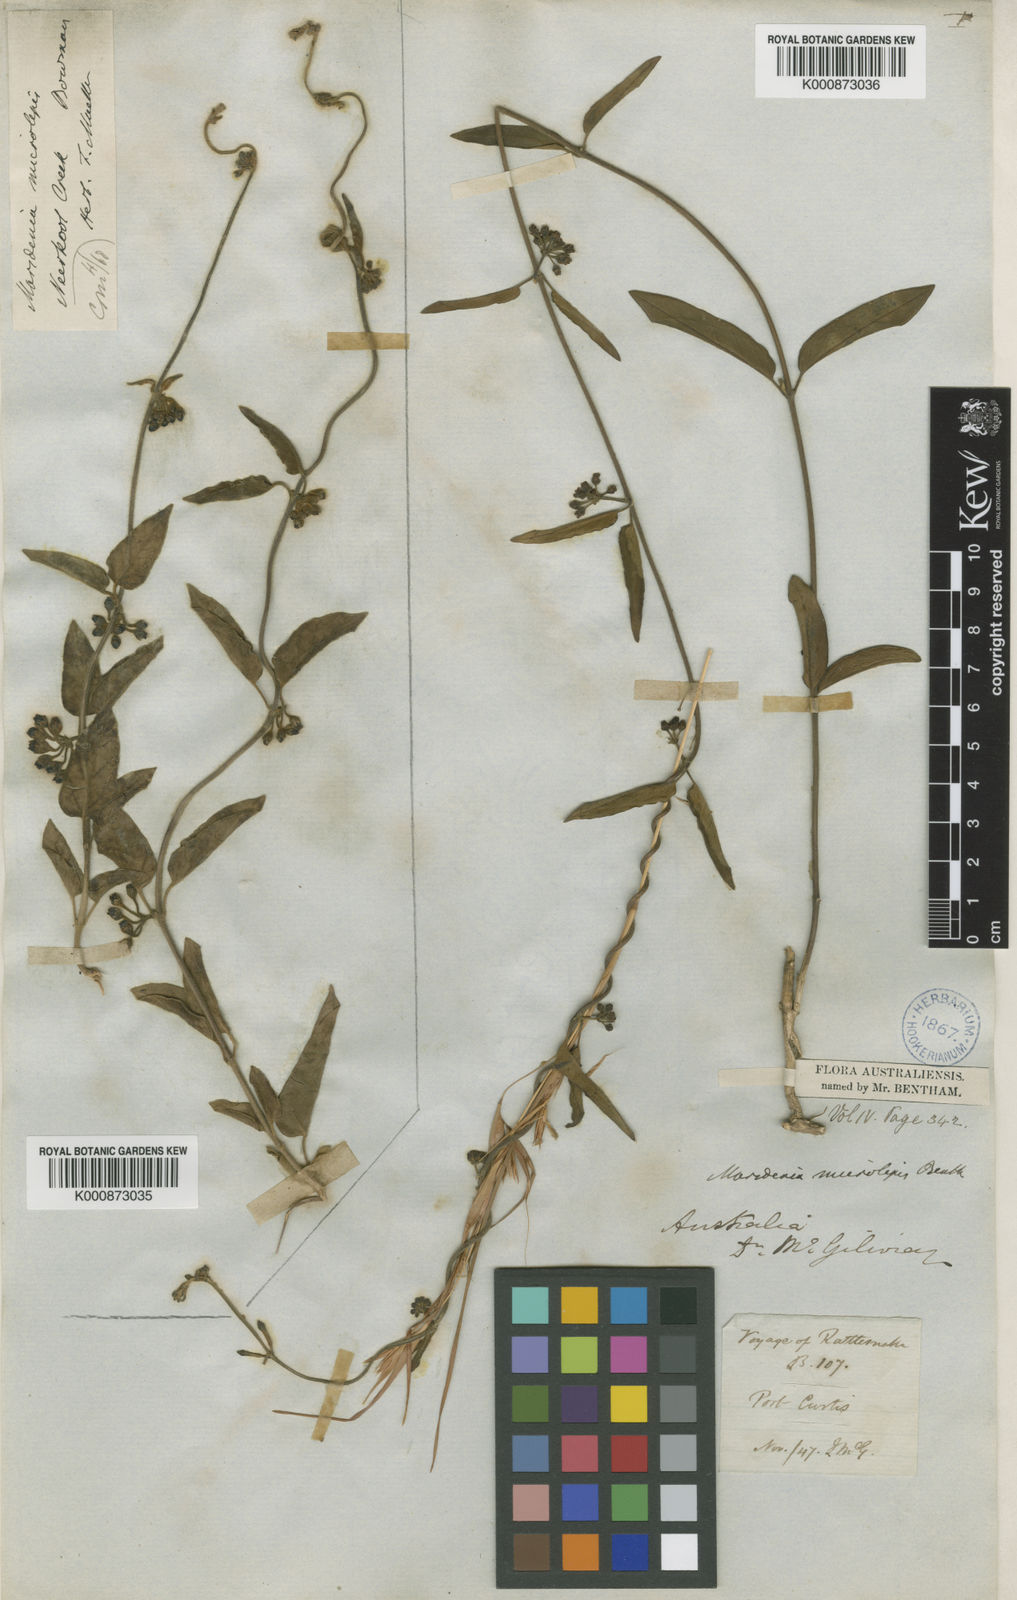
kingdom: Plantae
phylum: Tracheophyta
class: Magnoliopsida
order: Gentianales
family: Apocynaceae
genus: Leichhardtia
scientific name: Leichhardtia microlepis
